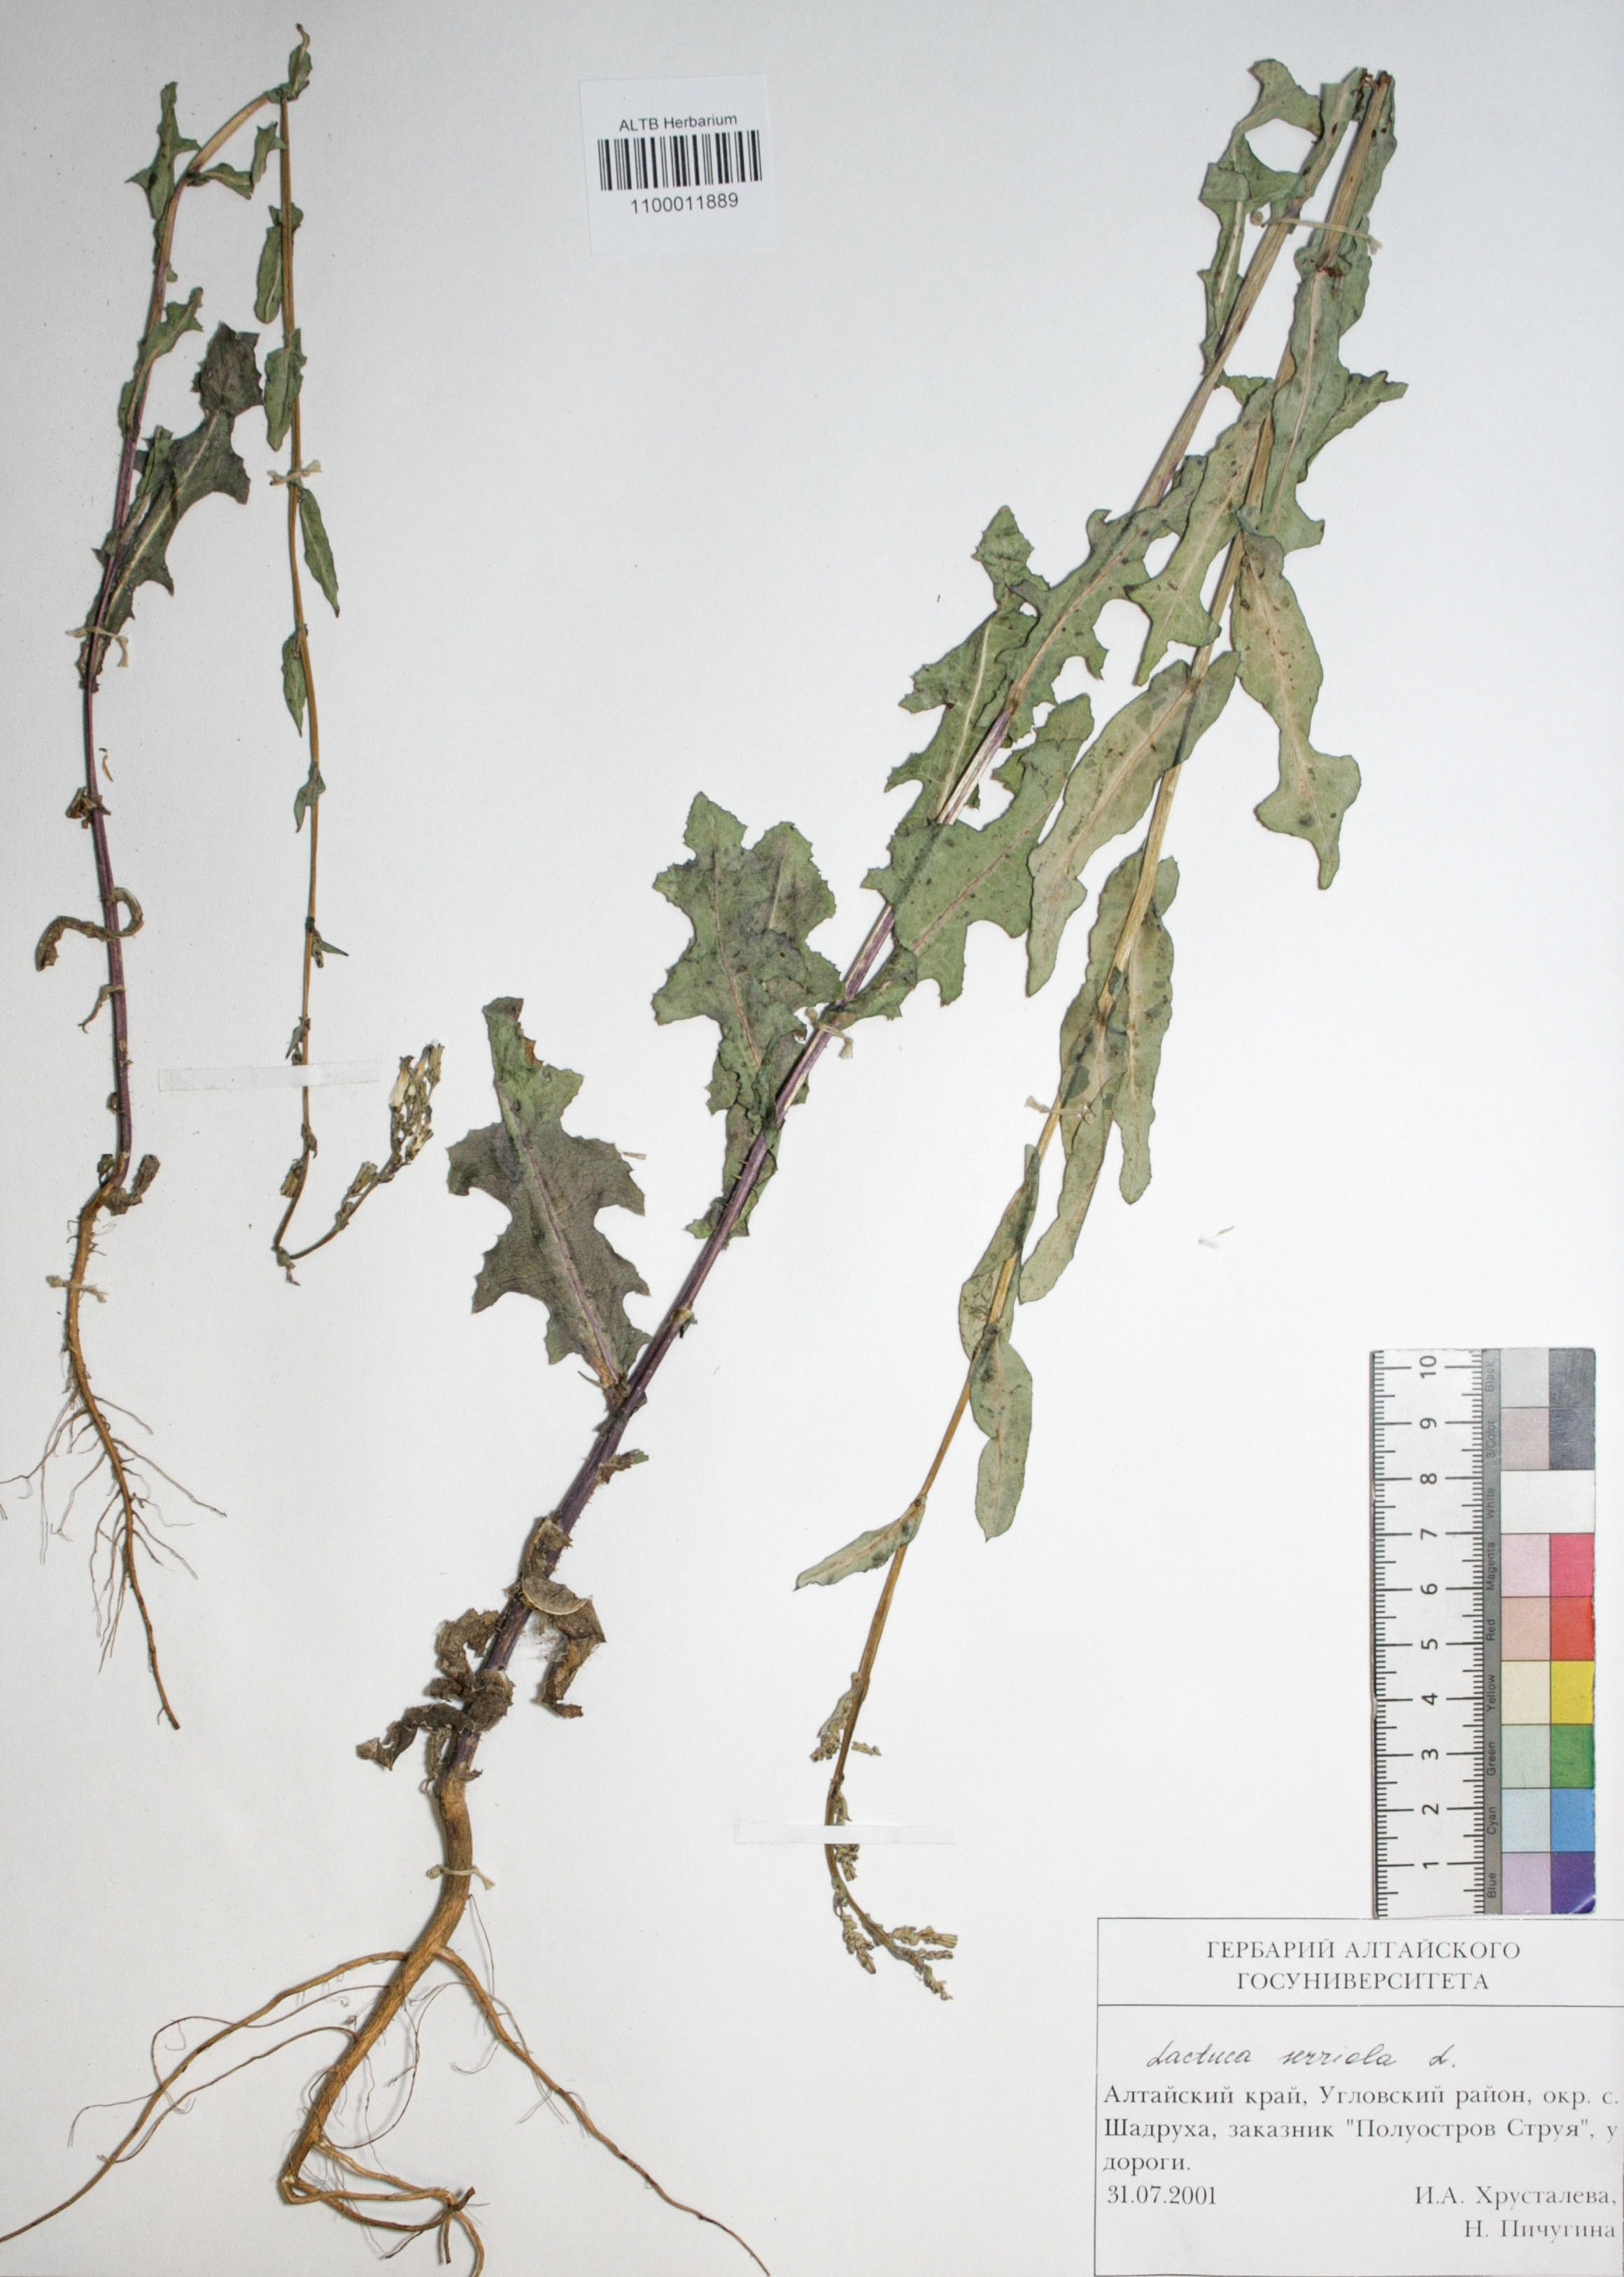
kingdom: Plantae
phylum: Tracheophyta
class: Magnoliopsida
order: Asterales
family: Asteraceae
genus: Lactuca
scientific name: Lactuca serriola
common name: Prickly lettuce
